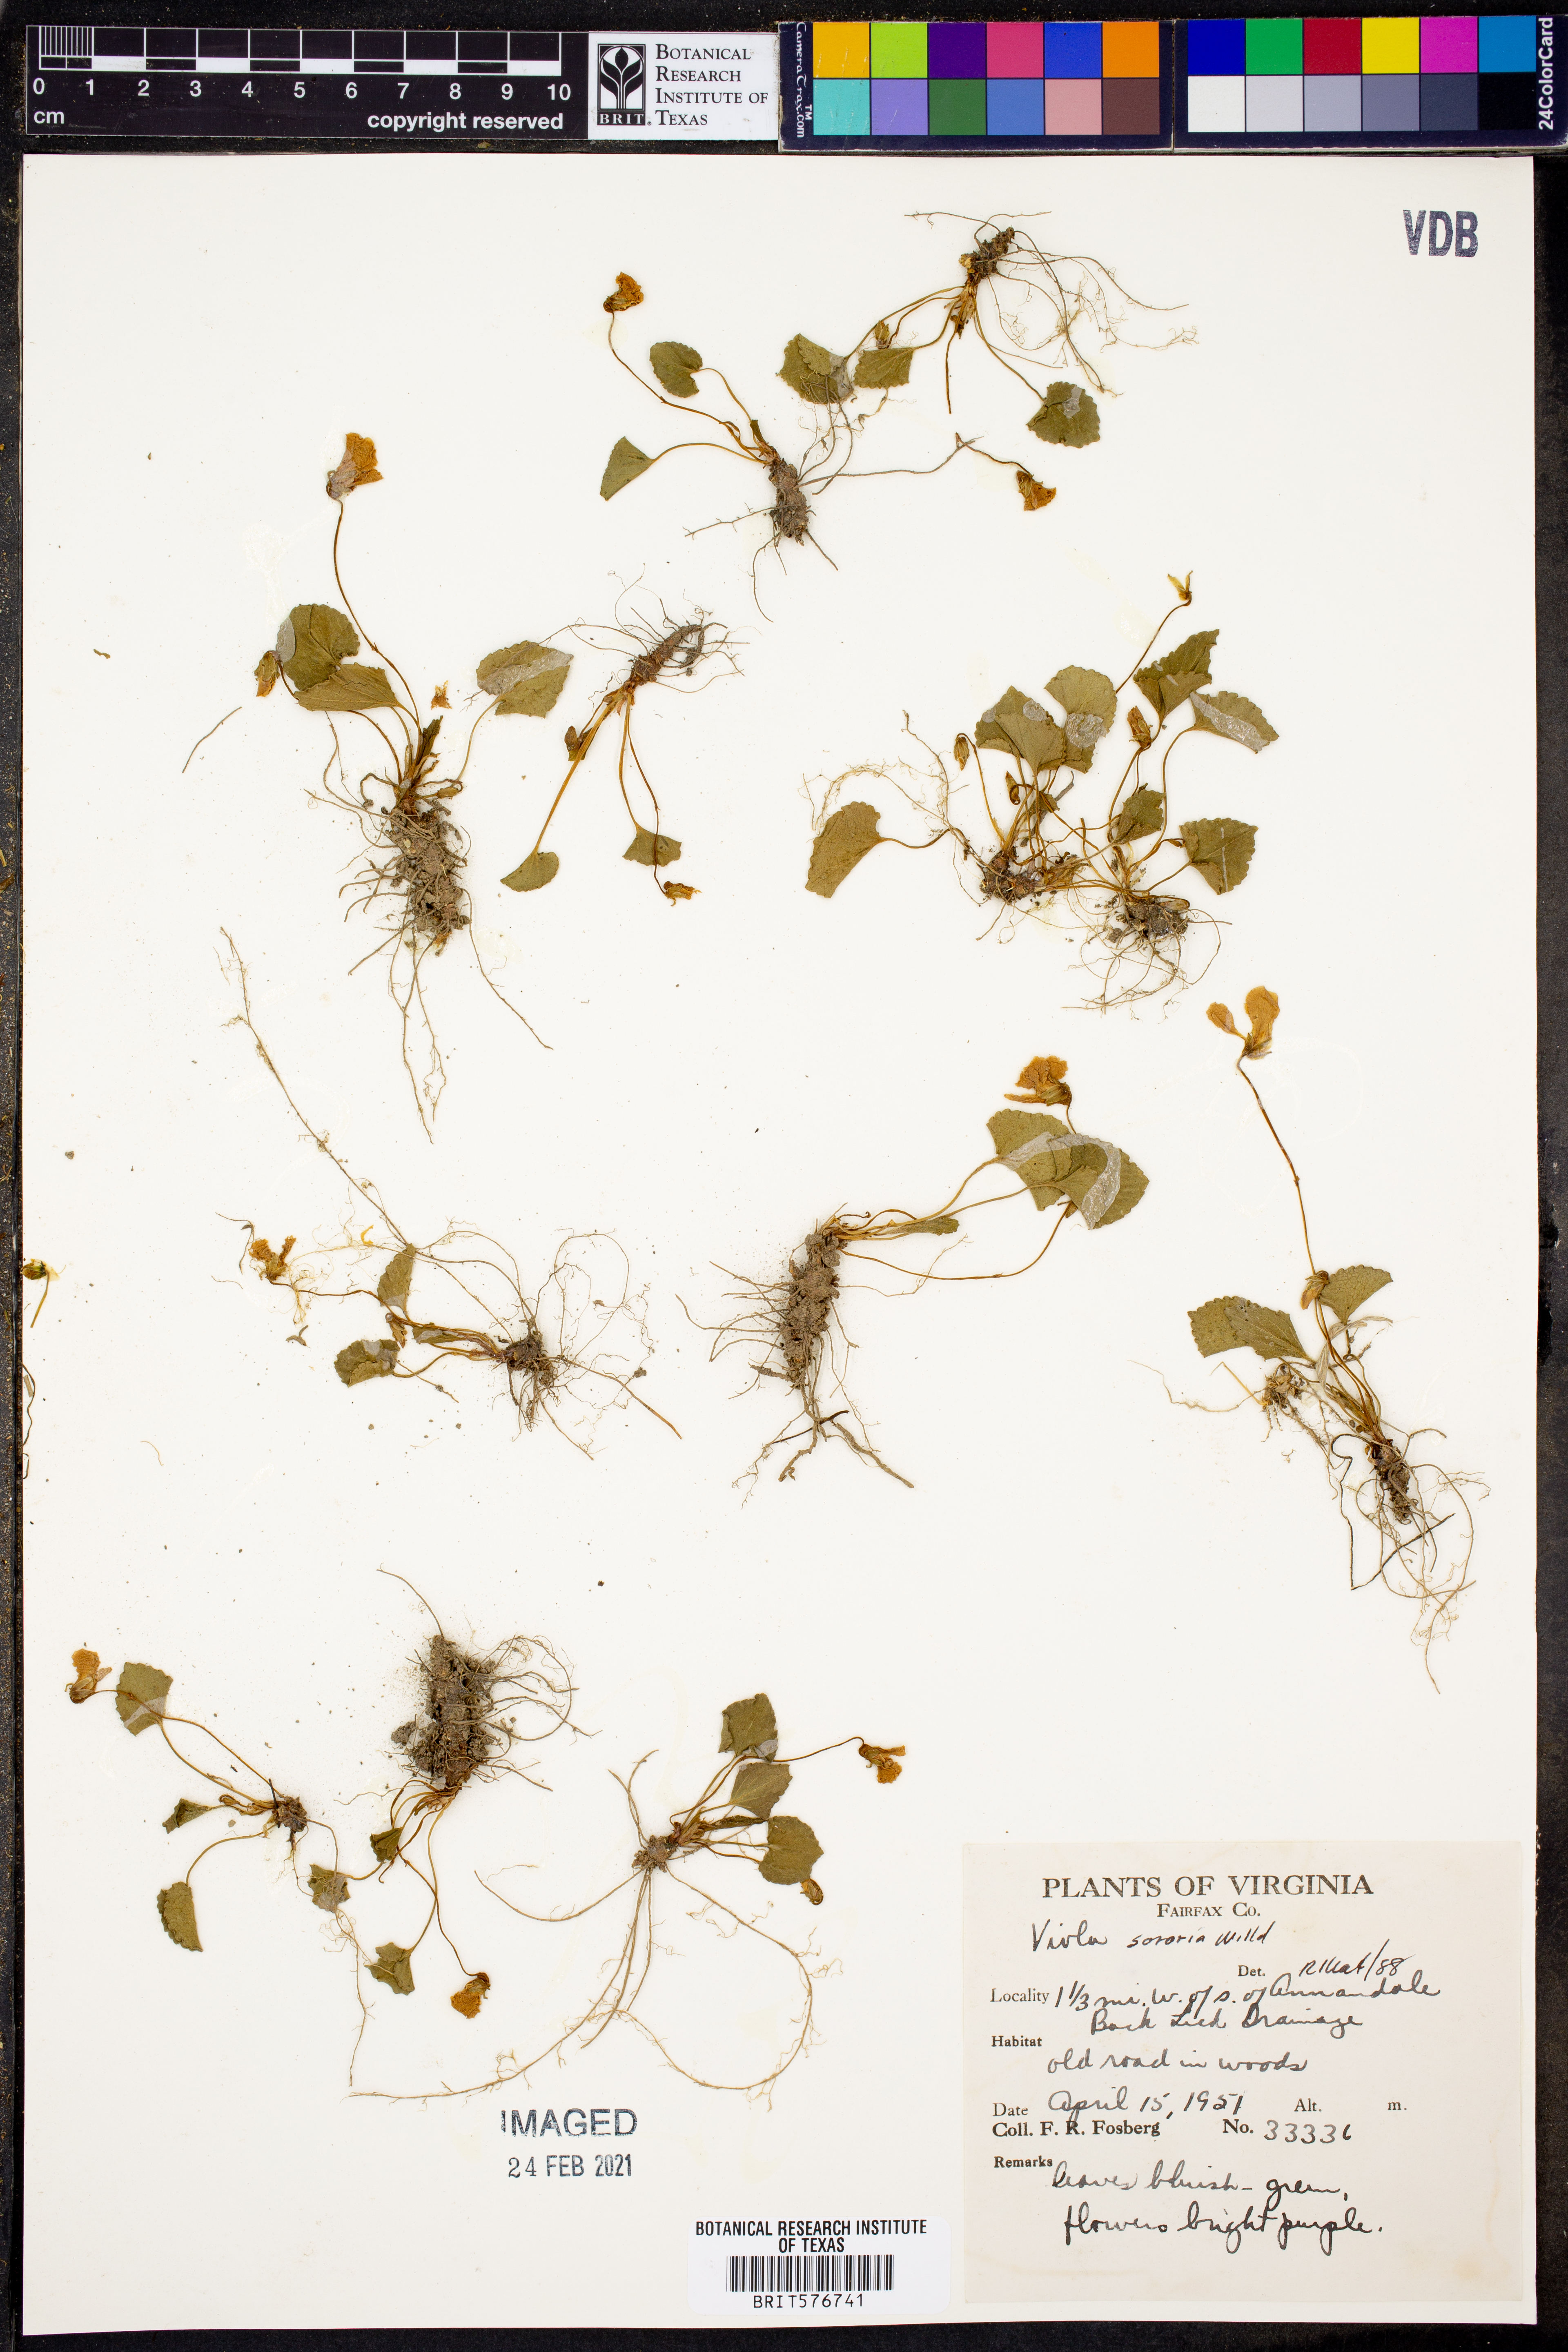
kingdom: Plantae
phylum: Tracheophyta
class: Magnoliopsida
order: Malpighiales
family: Violaceae
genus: Viola
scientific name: Viola sororia
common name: Dooryard violet
